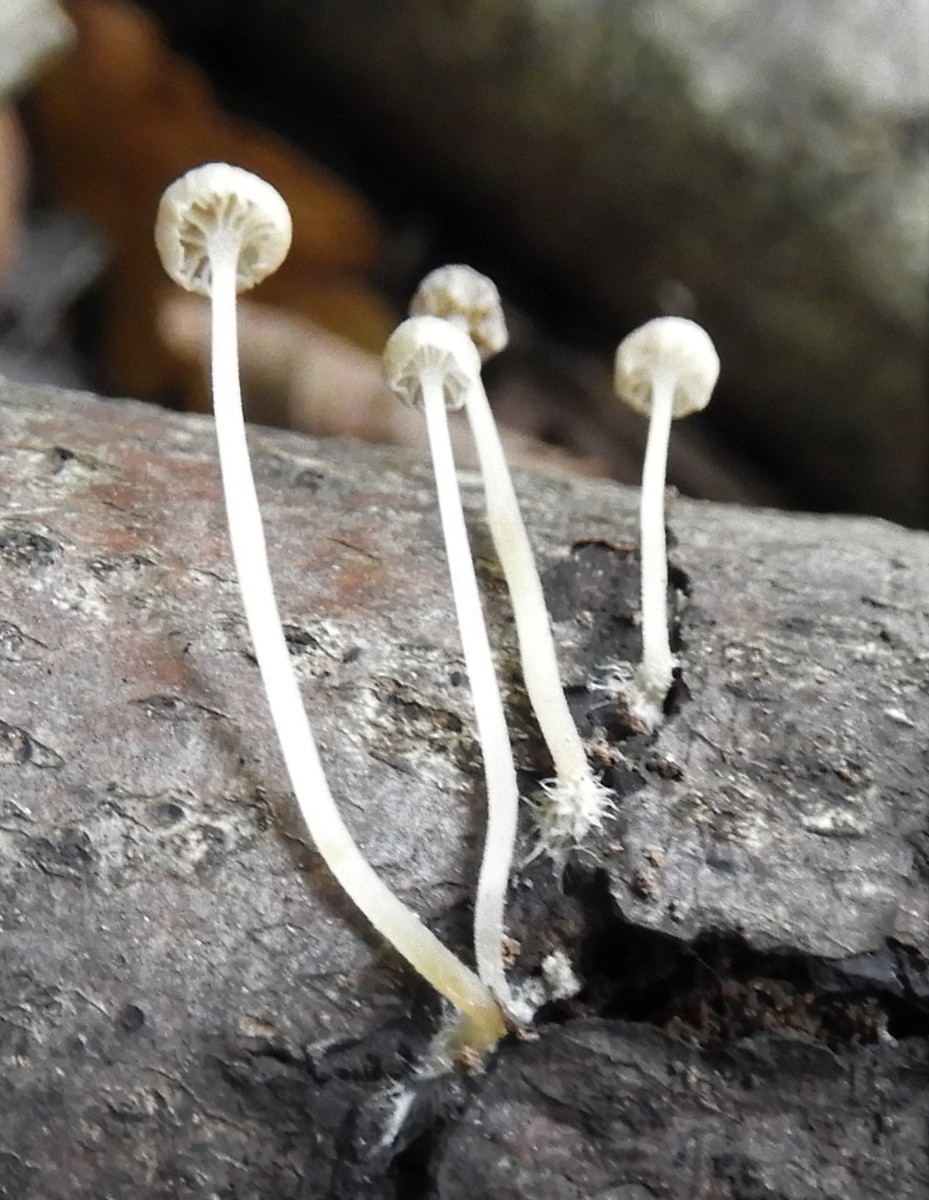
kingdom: Fungi
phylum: Basidiomycota
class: Agaricomycetes
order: Agaricales
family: Porotheleaceae
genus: Phloeomana
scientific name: Phloeomana speirea
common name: kvist-huesvamp
